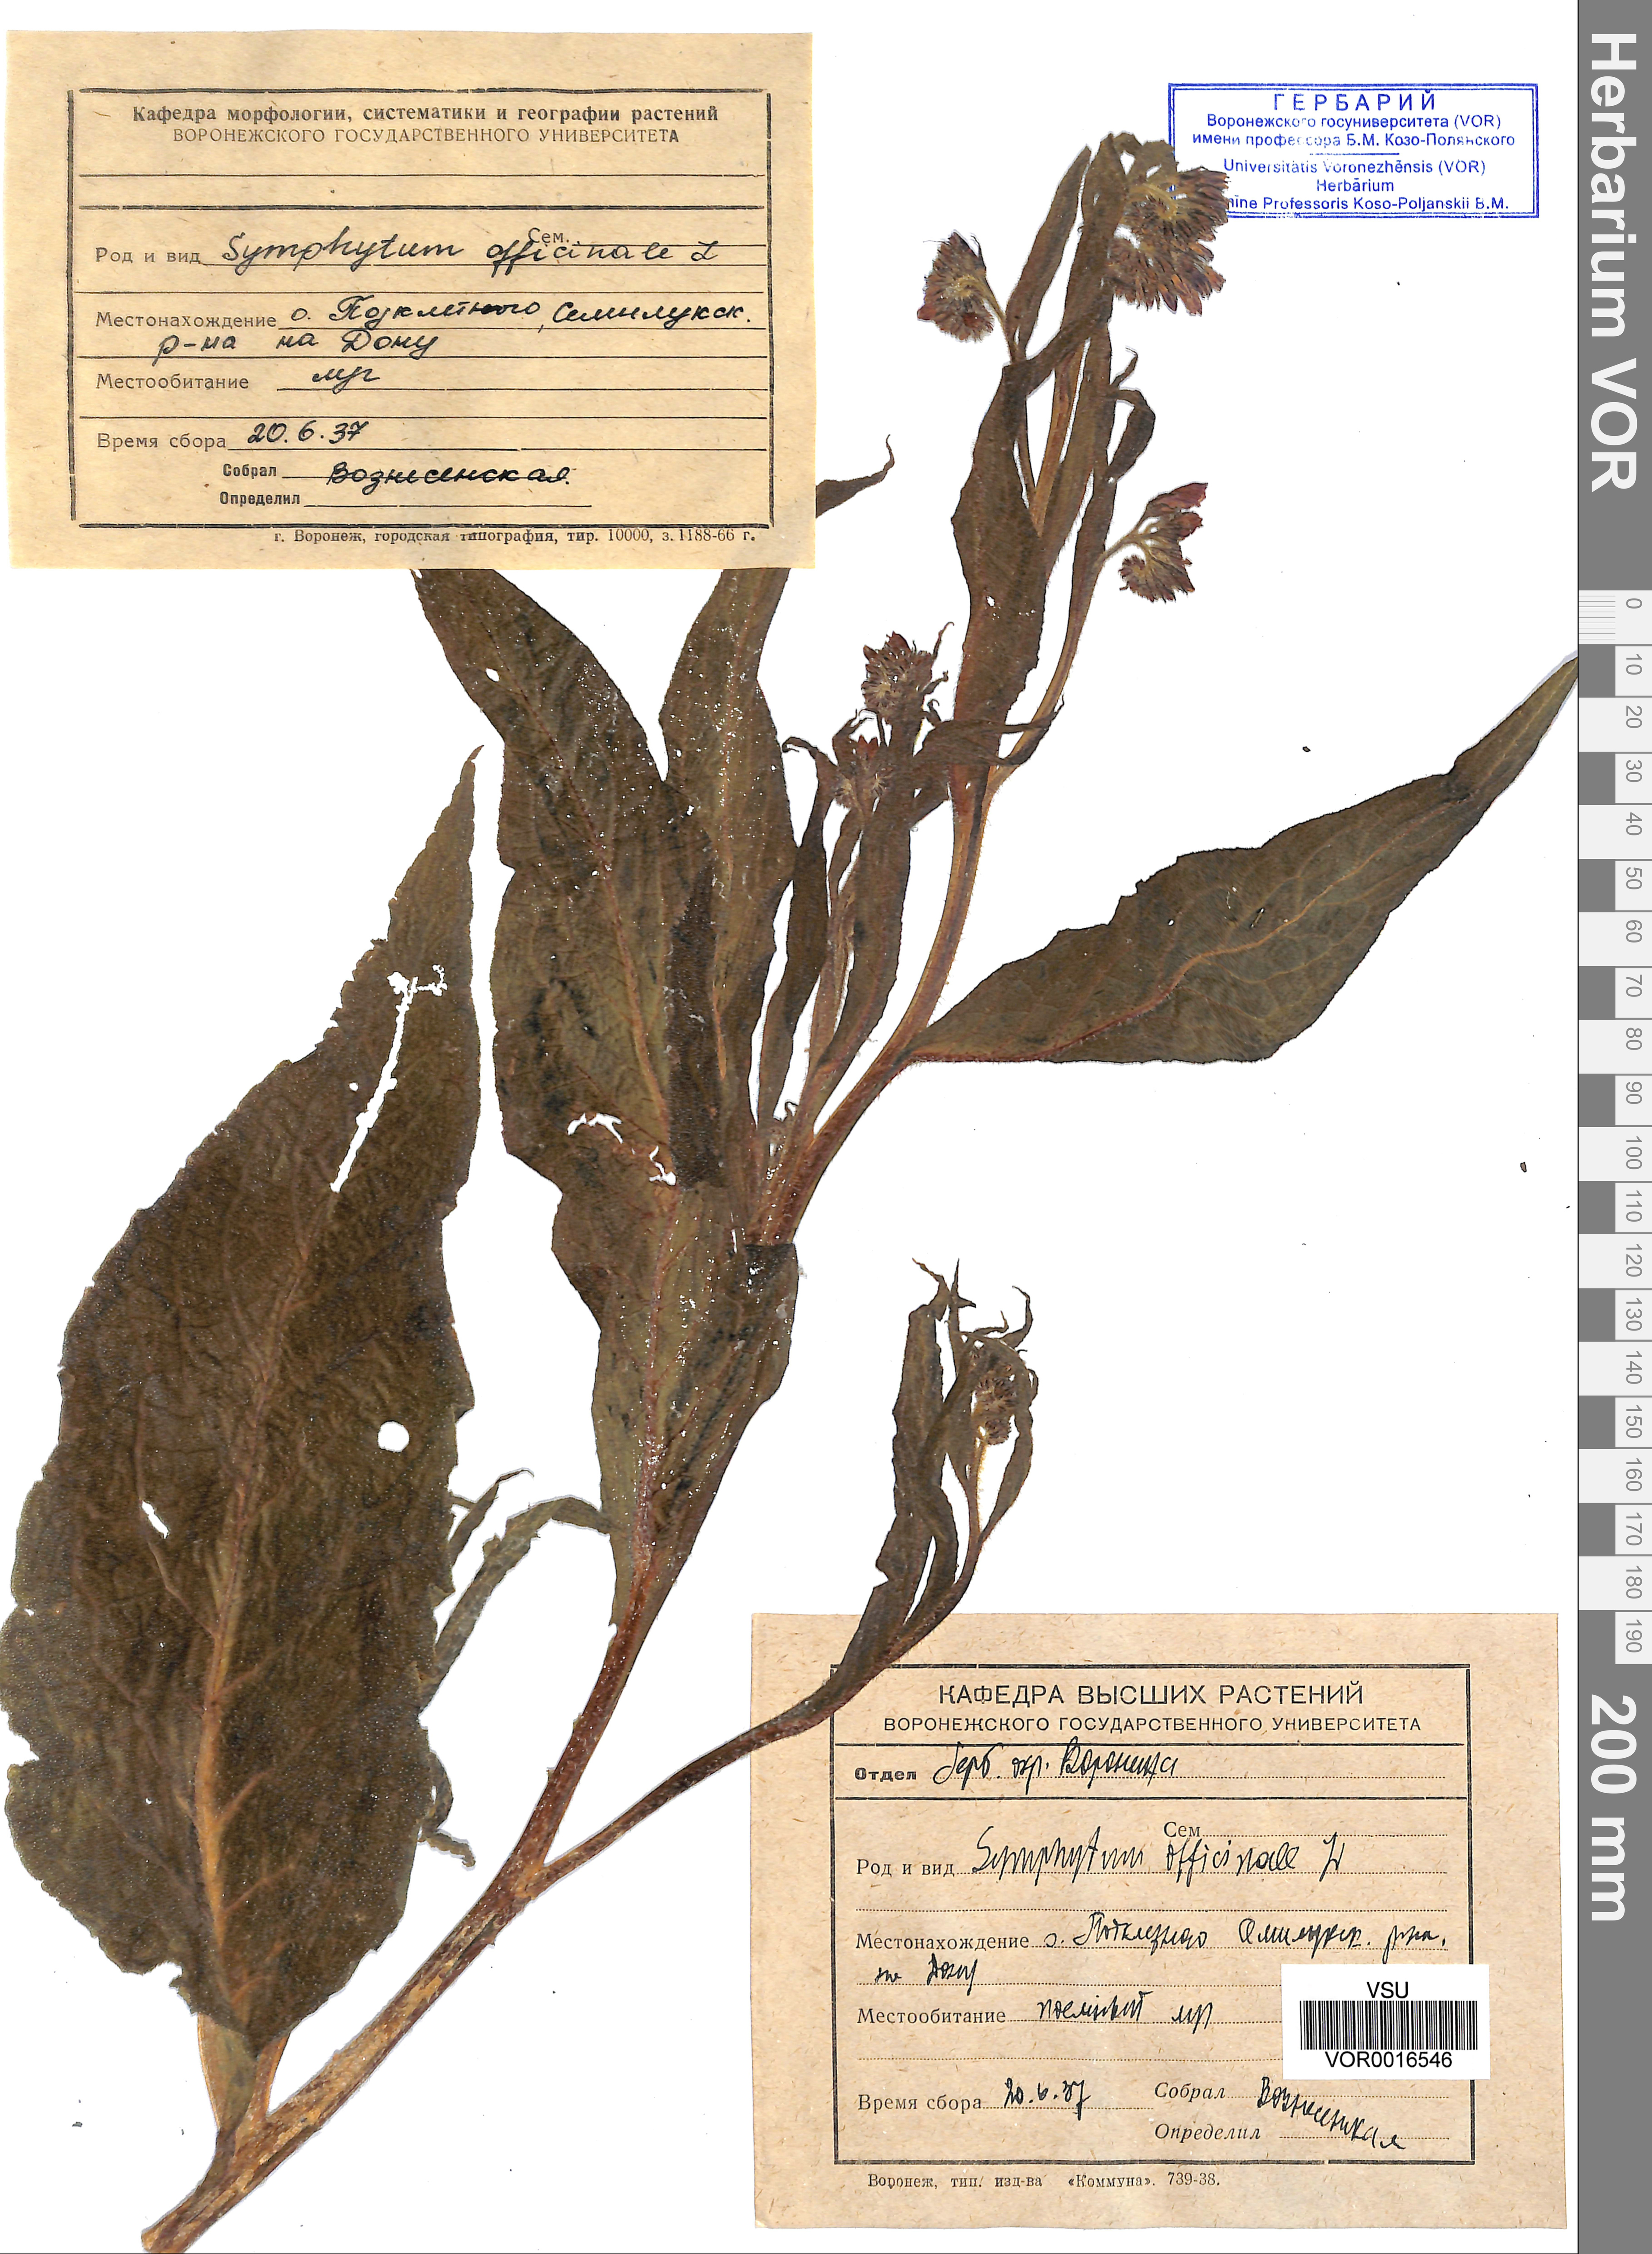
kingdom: Plantae
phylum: Tracheophyta
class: Magnoliopsida
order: Boraginales
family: Boraginaceae
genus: Symphytum
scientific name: Symphytum officinale
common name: Common comfrey
